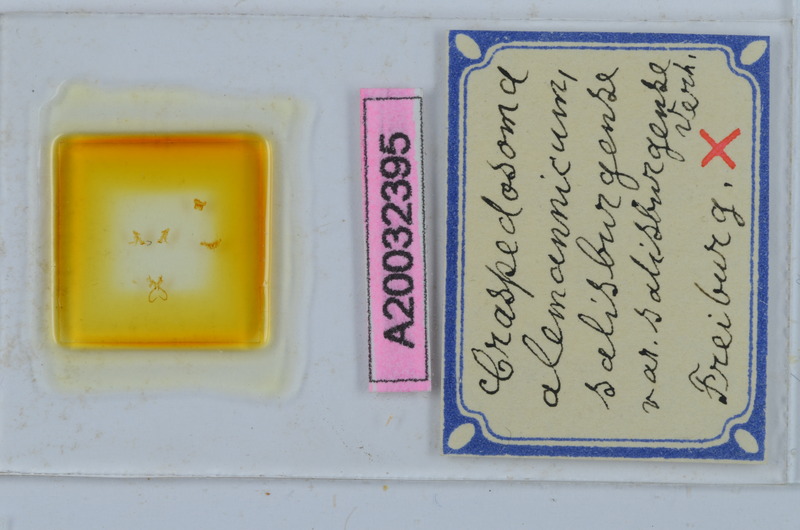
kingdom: Animalia
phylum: Arthropoda
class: Diplopoda
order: Chordeumatida
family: Craspedosomatidae
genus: Craspedosoma
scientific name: Craspedosoma rawlinsii
